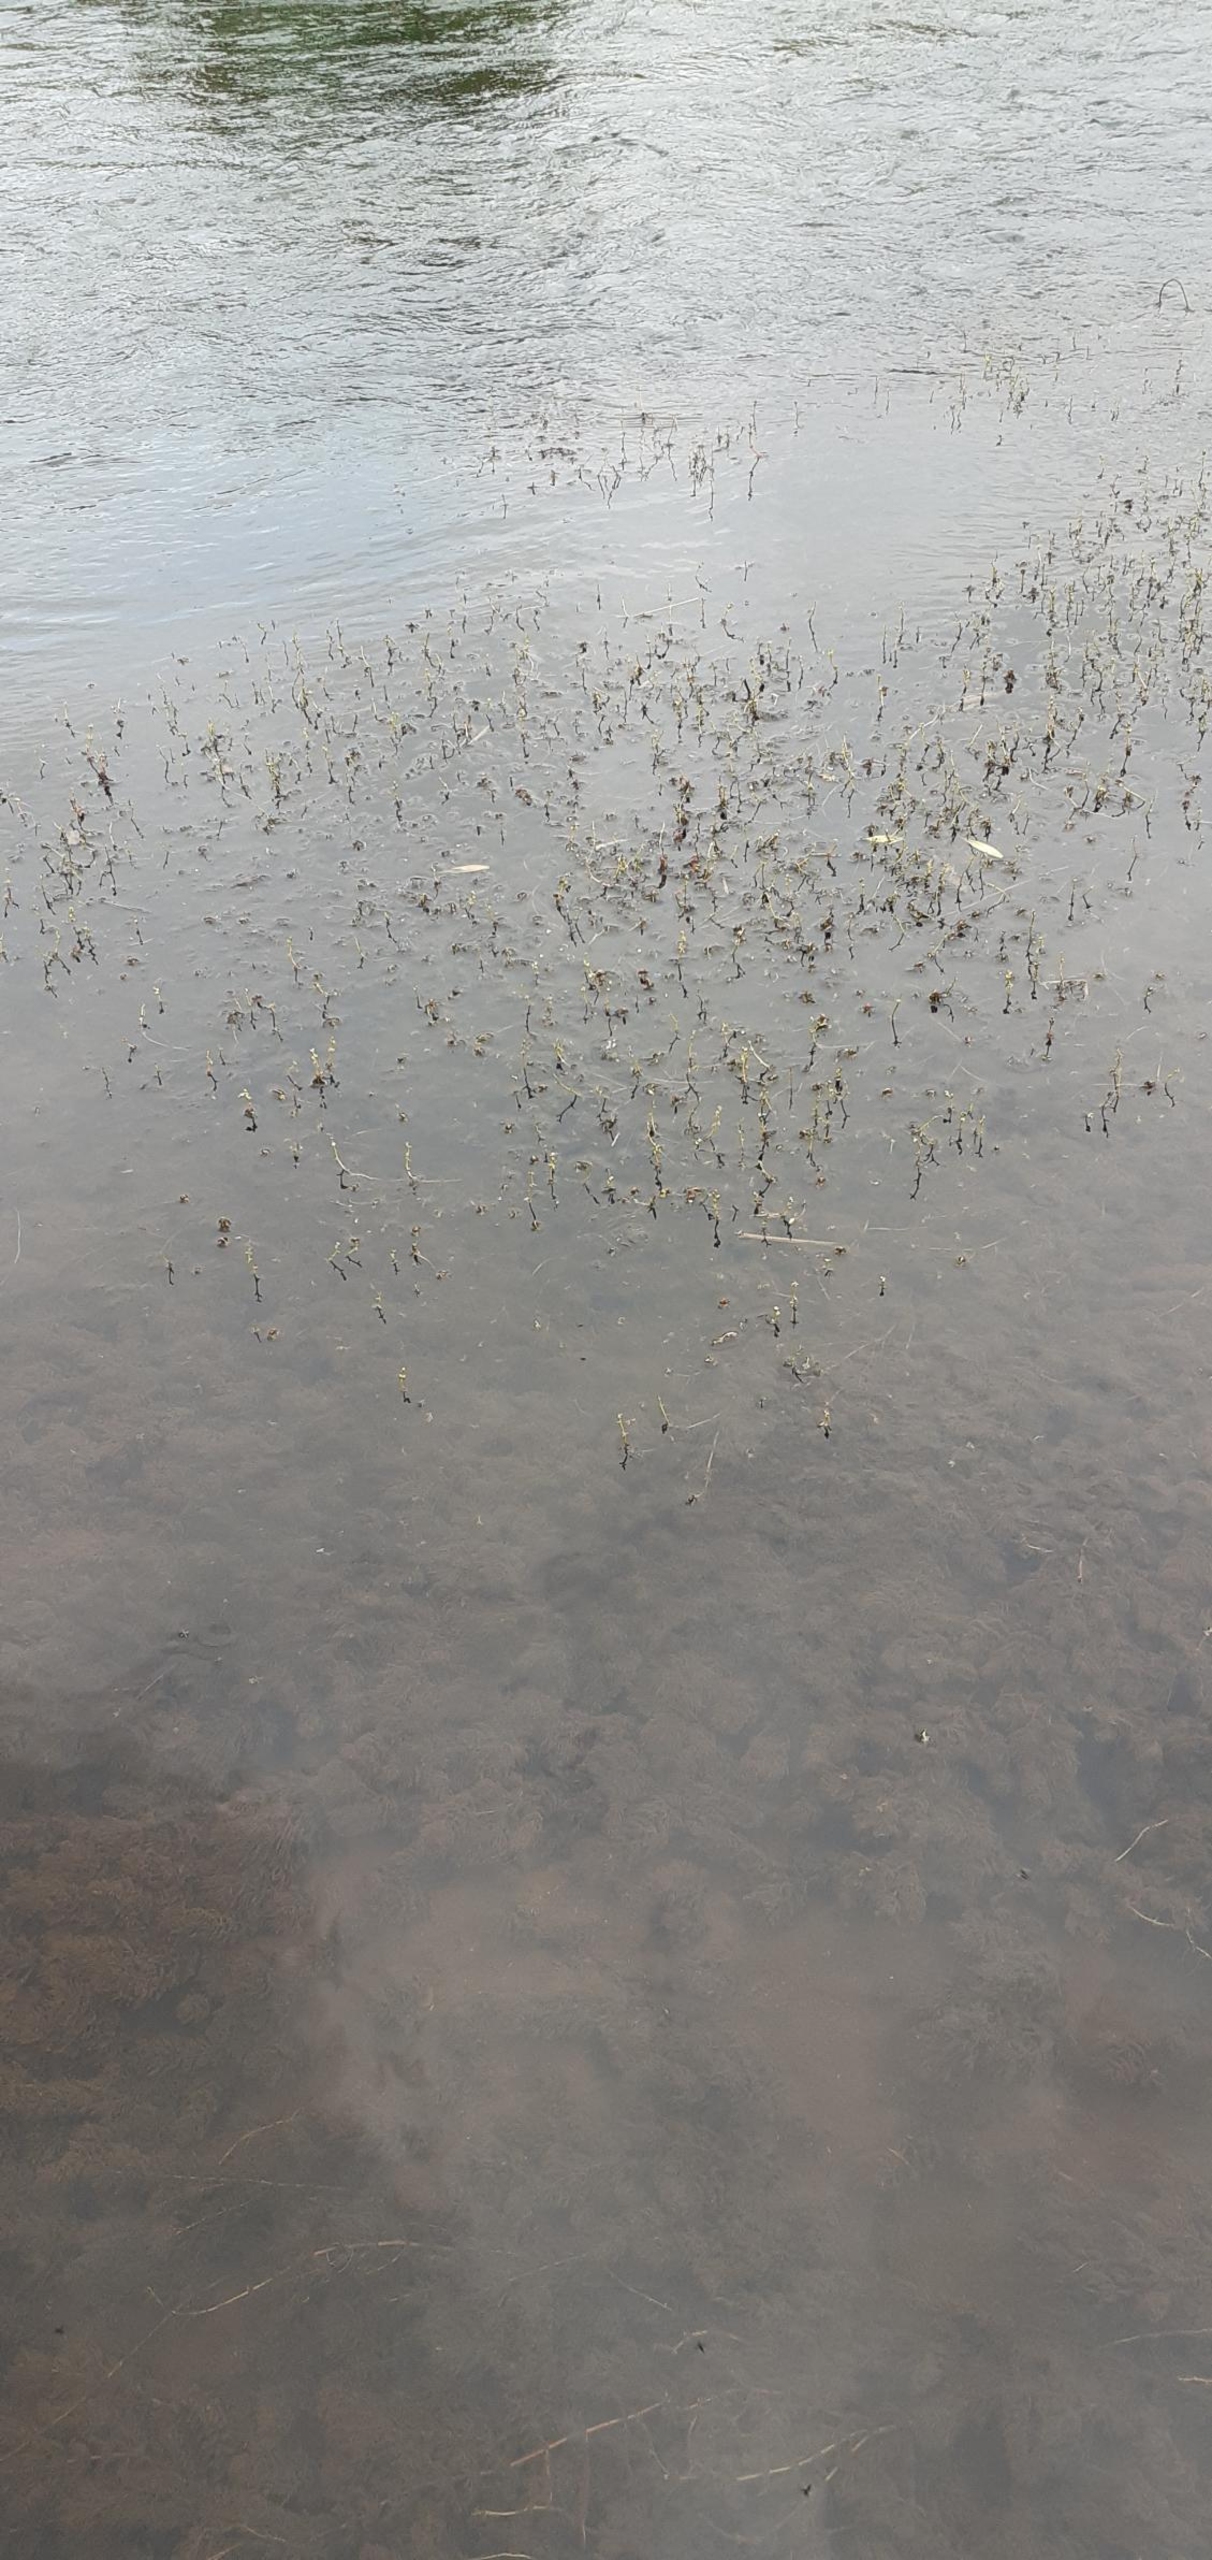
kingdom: Plantae
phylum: Tracheophyta
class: Magnoliopsida
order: Saxifragales
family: Haloragaceae
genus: Myriophyllum
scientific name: Myriophyllum
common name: Tusindbladslægten
